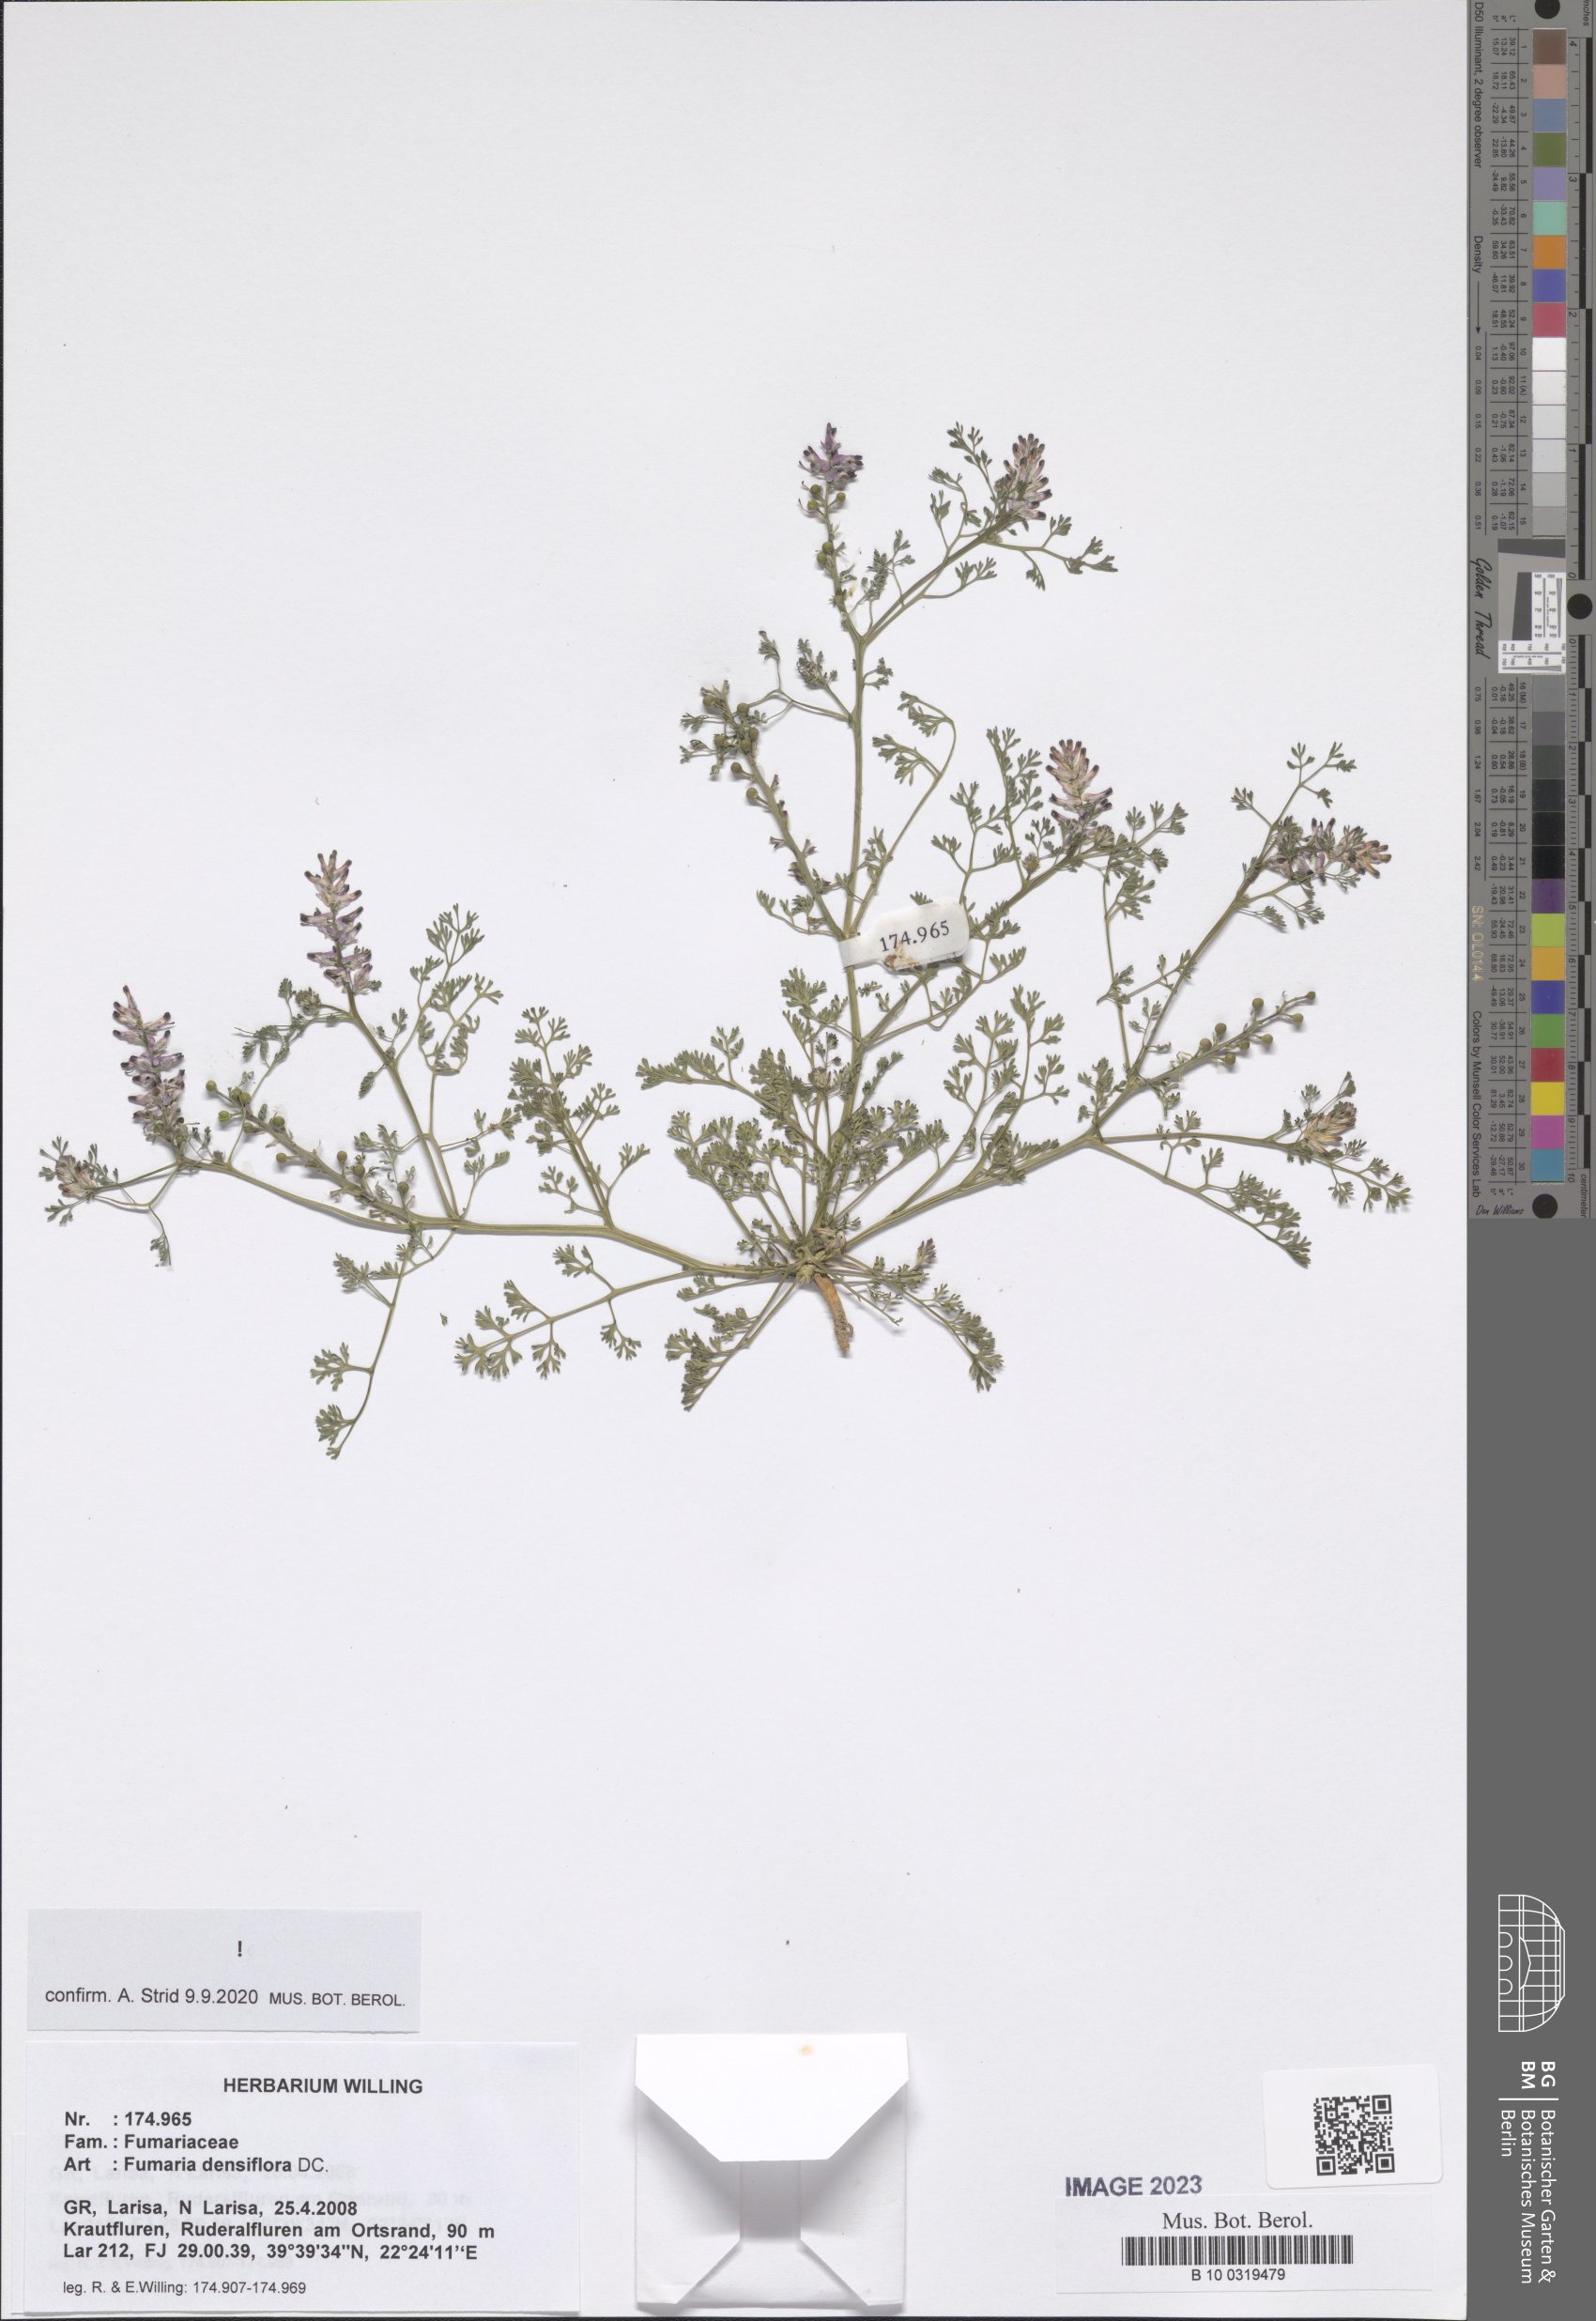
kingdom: Plantae
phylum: Tracheophyta
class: Magnoliopsida
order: Ranunculales
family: Papaveraceae
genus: Fumaria
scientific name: Fumaria densiflora
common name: Dense-flowered fumitory
